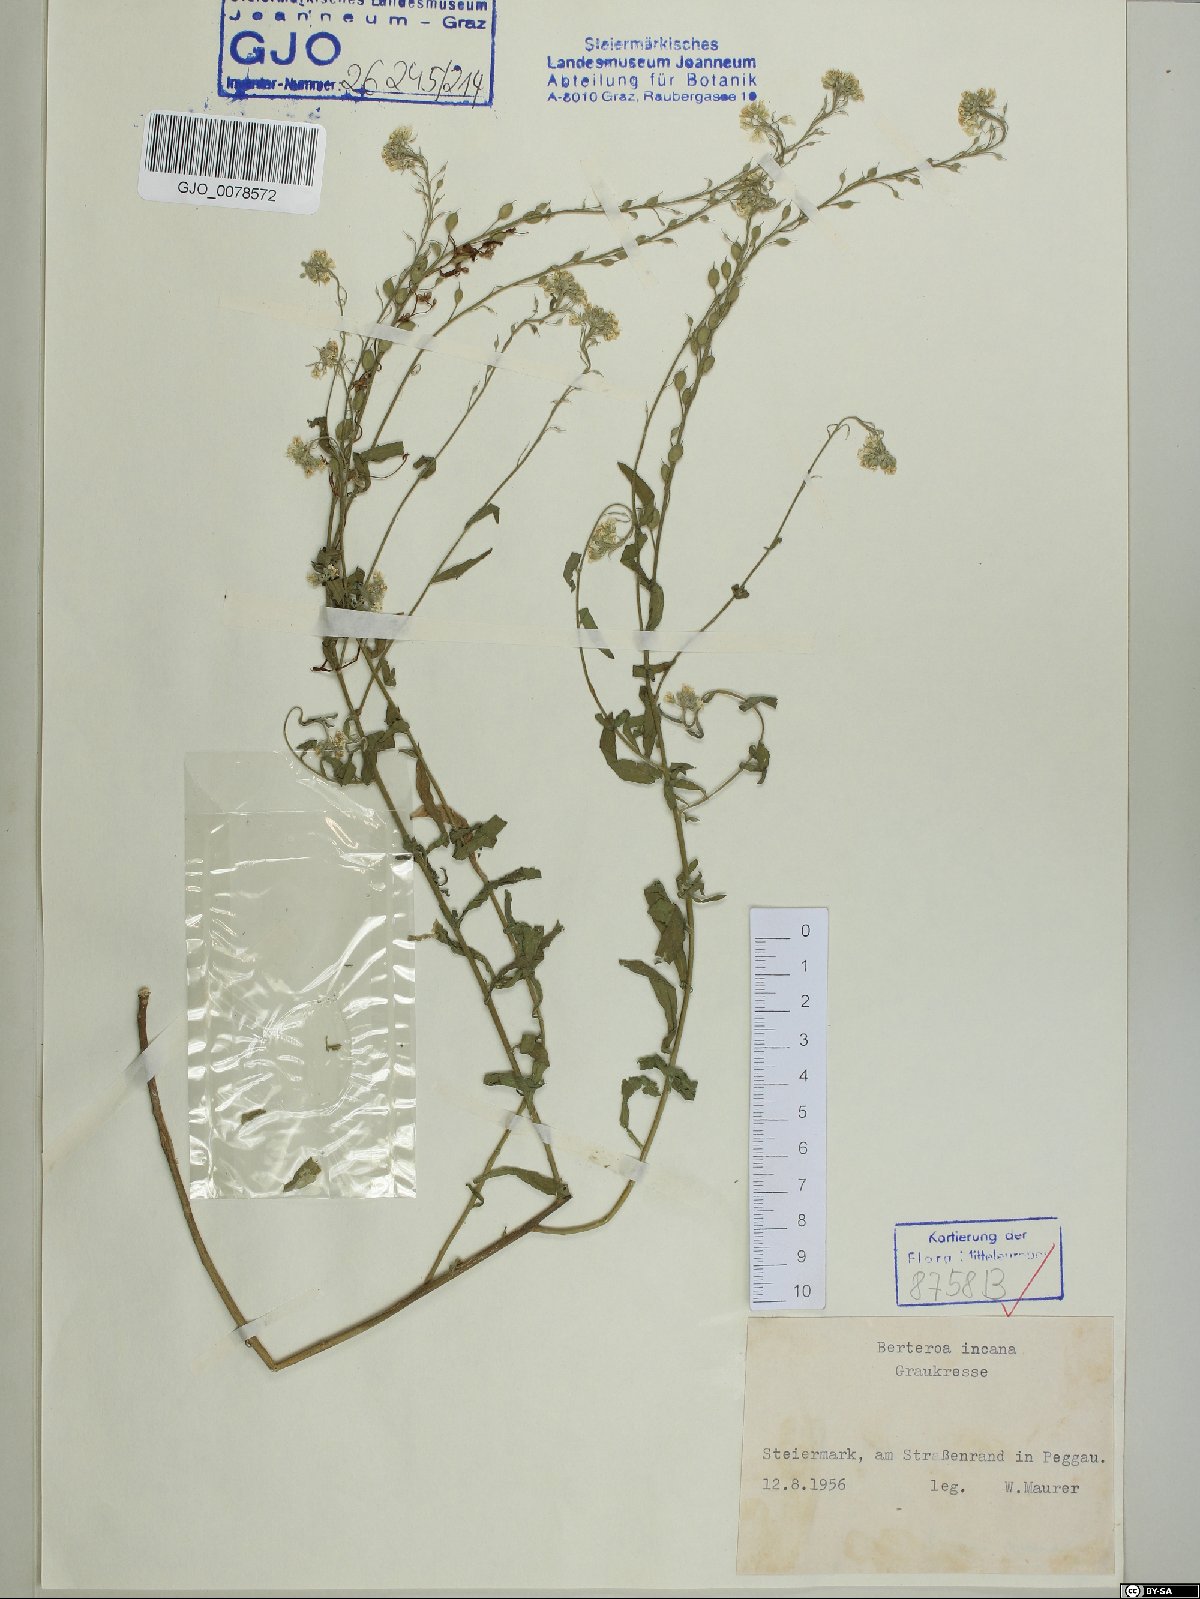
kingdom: Plantae
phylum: Tracheophyta
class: Magnoliopsida
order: Brassicales
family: Brassicaceae
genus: Berteroa
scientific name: Berteroa incana
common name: Hoary alison
